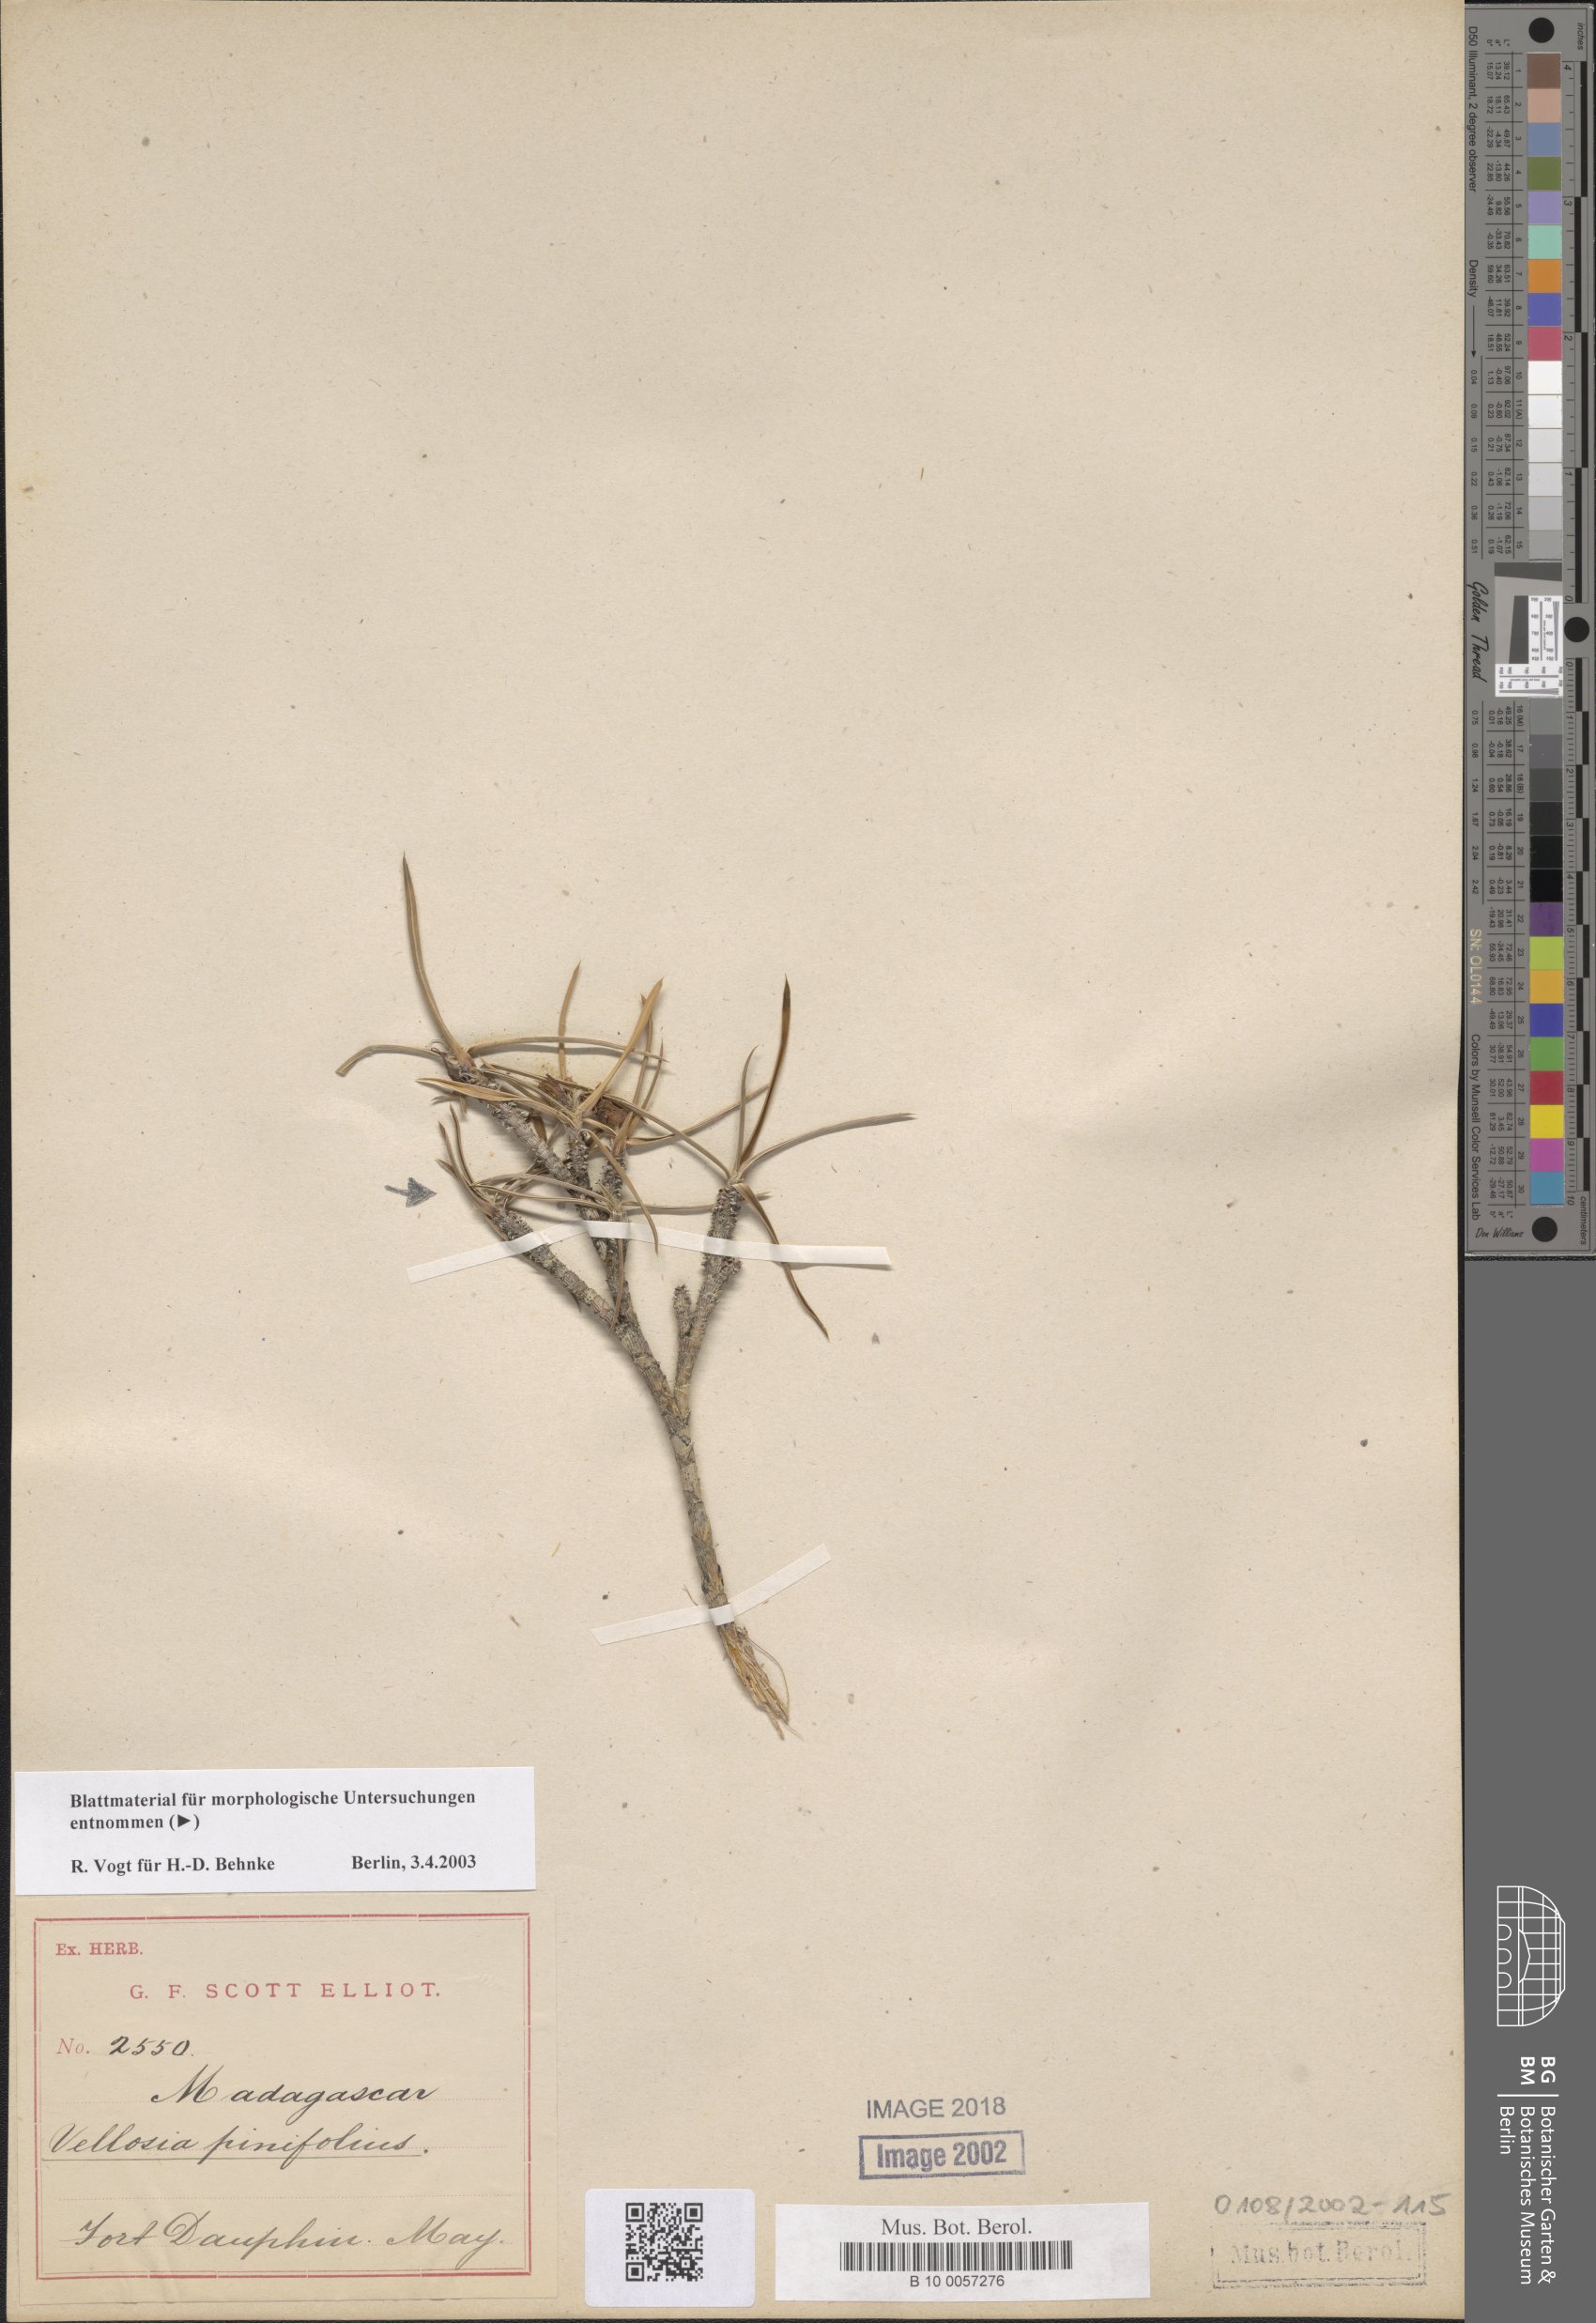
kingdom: Plantae
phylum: Tracheophyta
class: Liliopsida
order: Pandanales
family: Velloziaceae
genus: Xerophyta
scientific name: Xerophyta pinifolia
